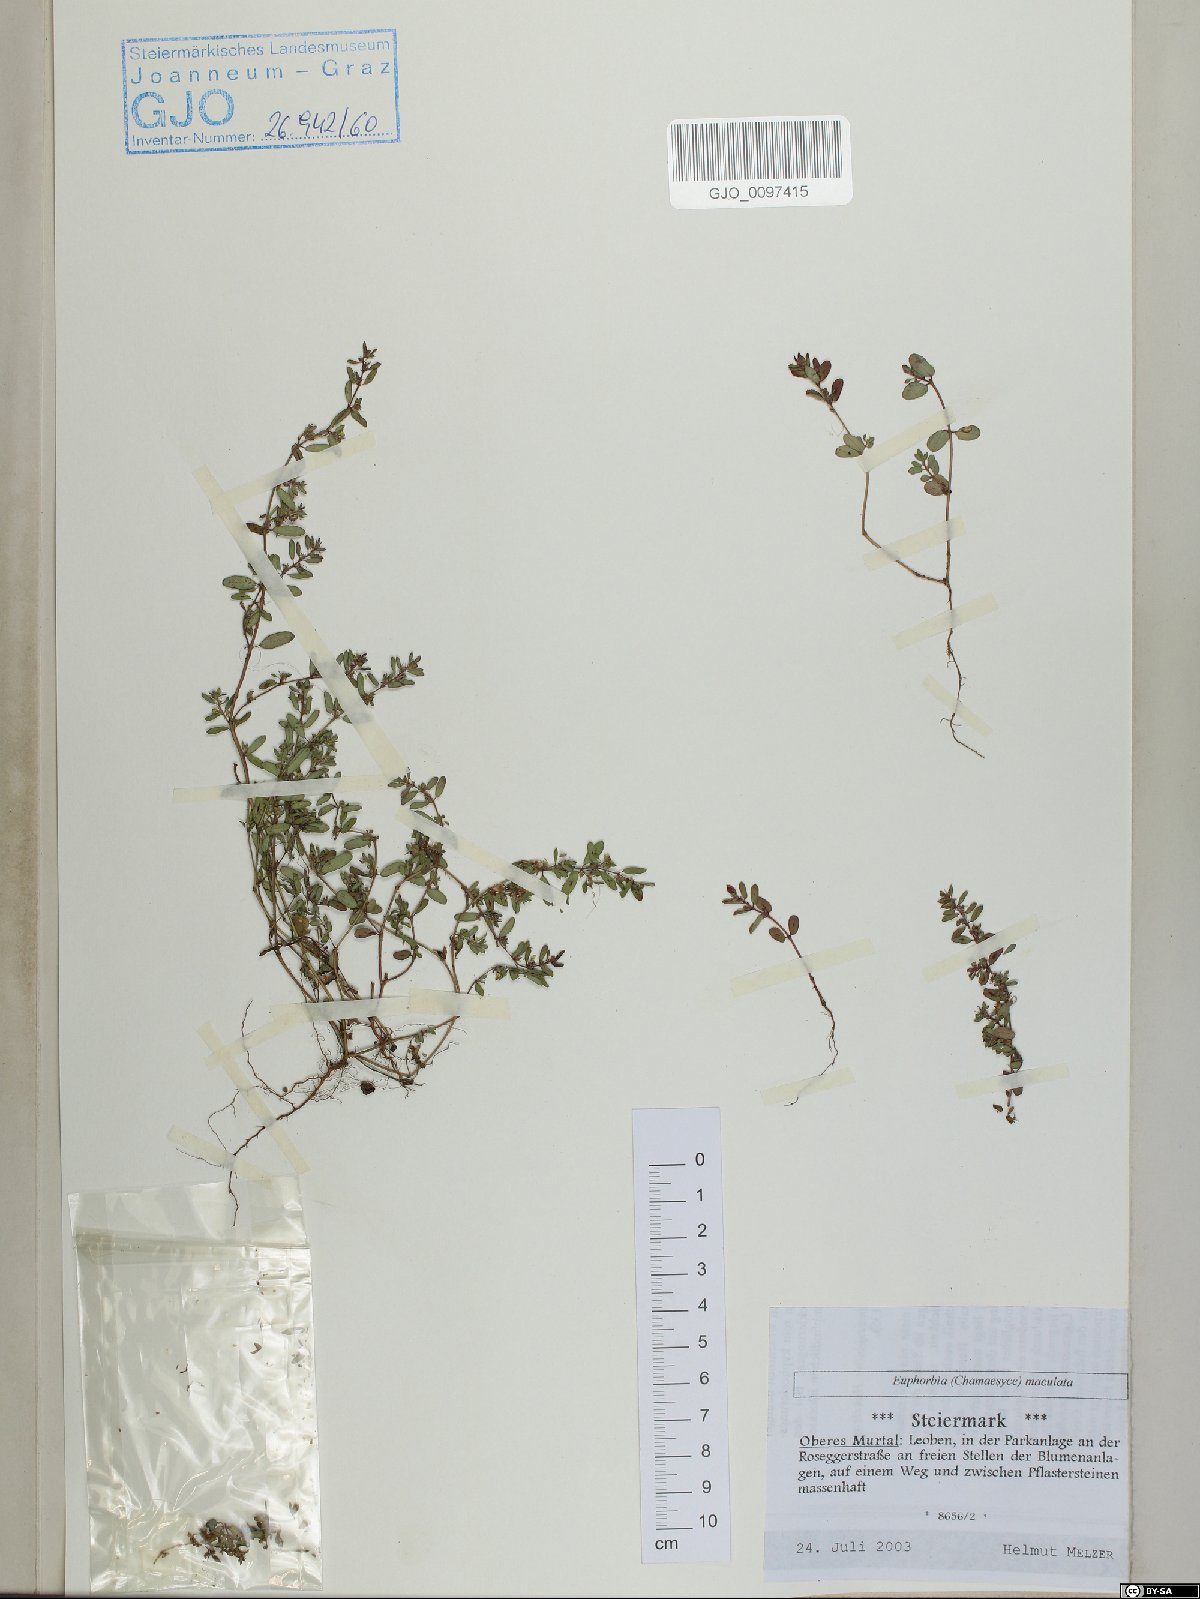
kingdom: Plantae
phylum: Tracheophyta
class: Magnoliopsida
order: Malpighiales
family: Euphorbiaceae
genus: Euphorbia
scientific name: Euphorbia maculata
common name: Spotted spurge
